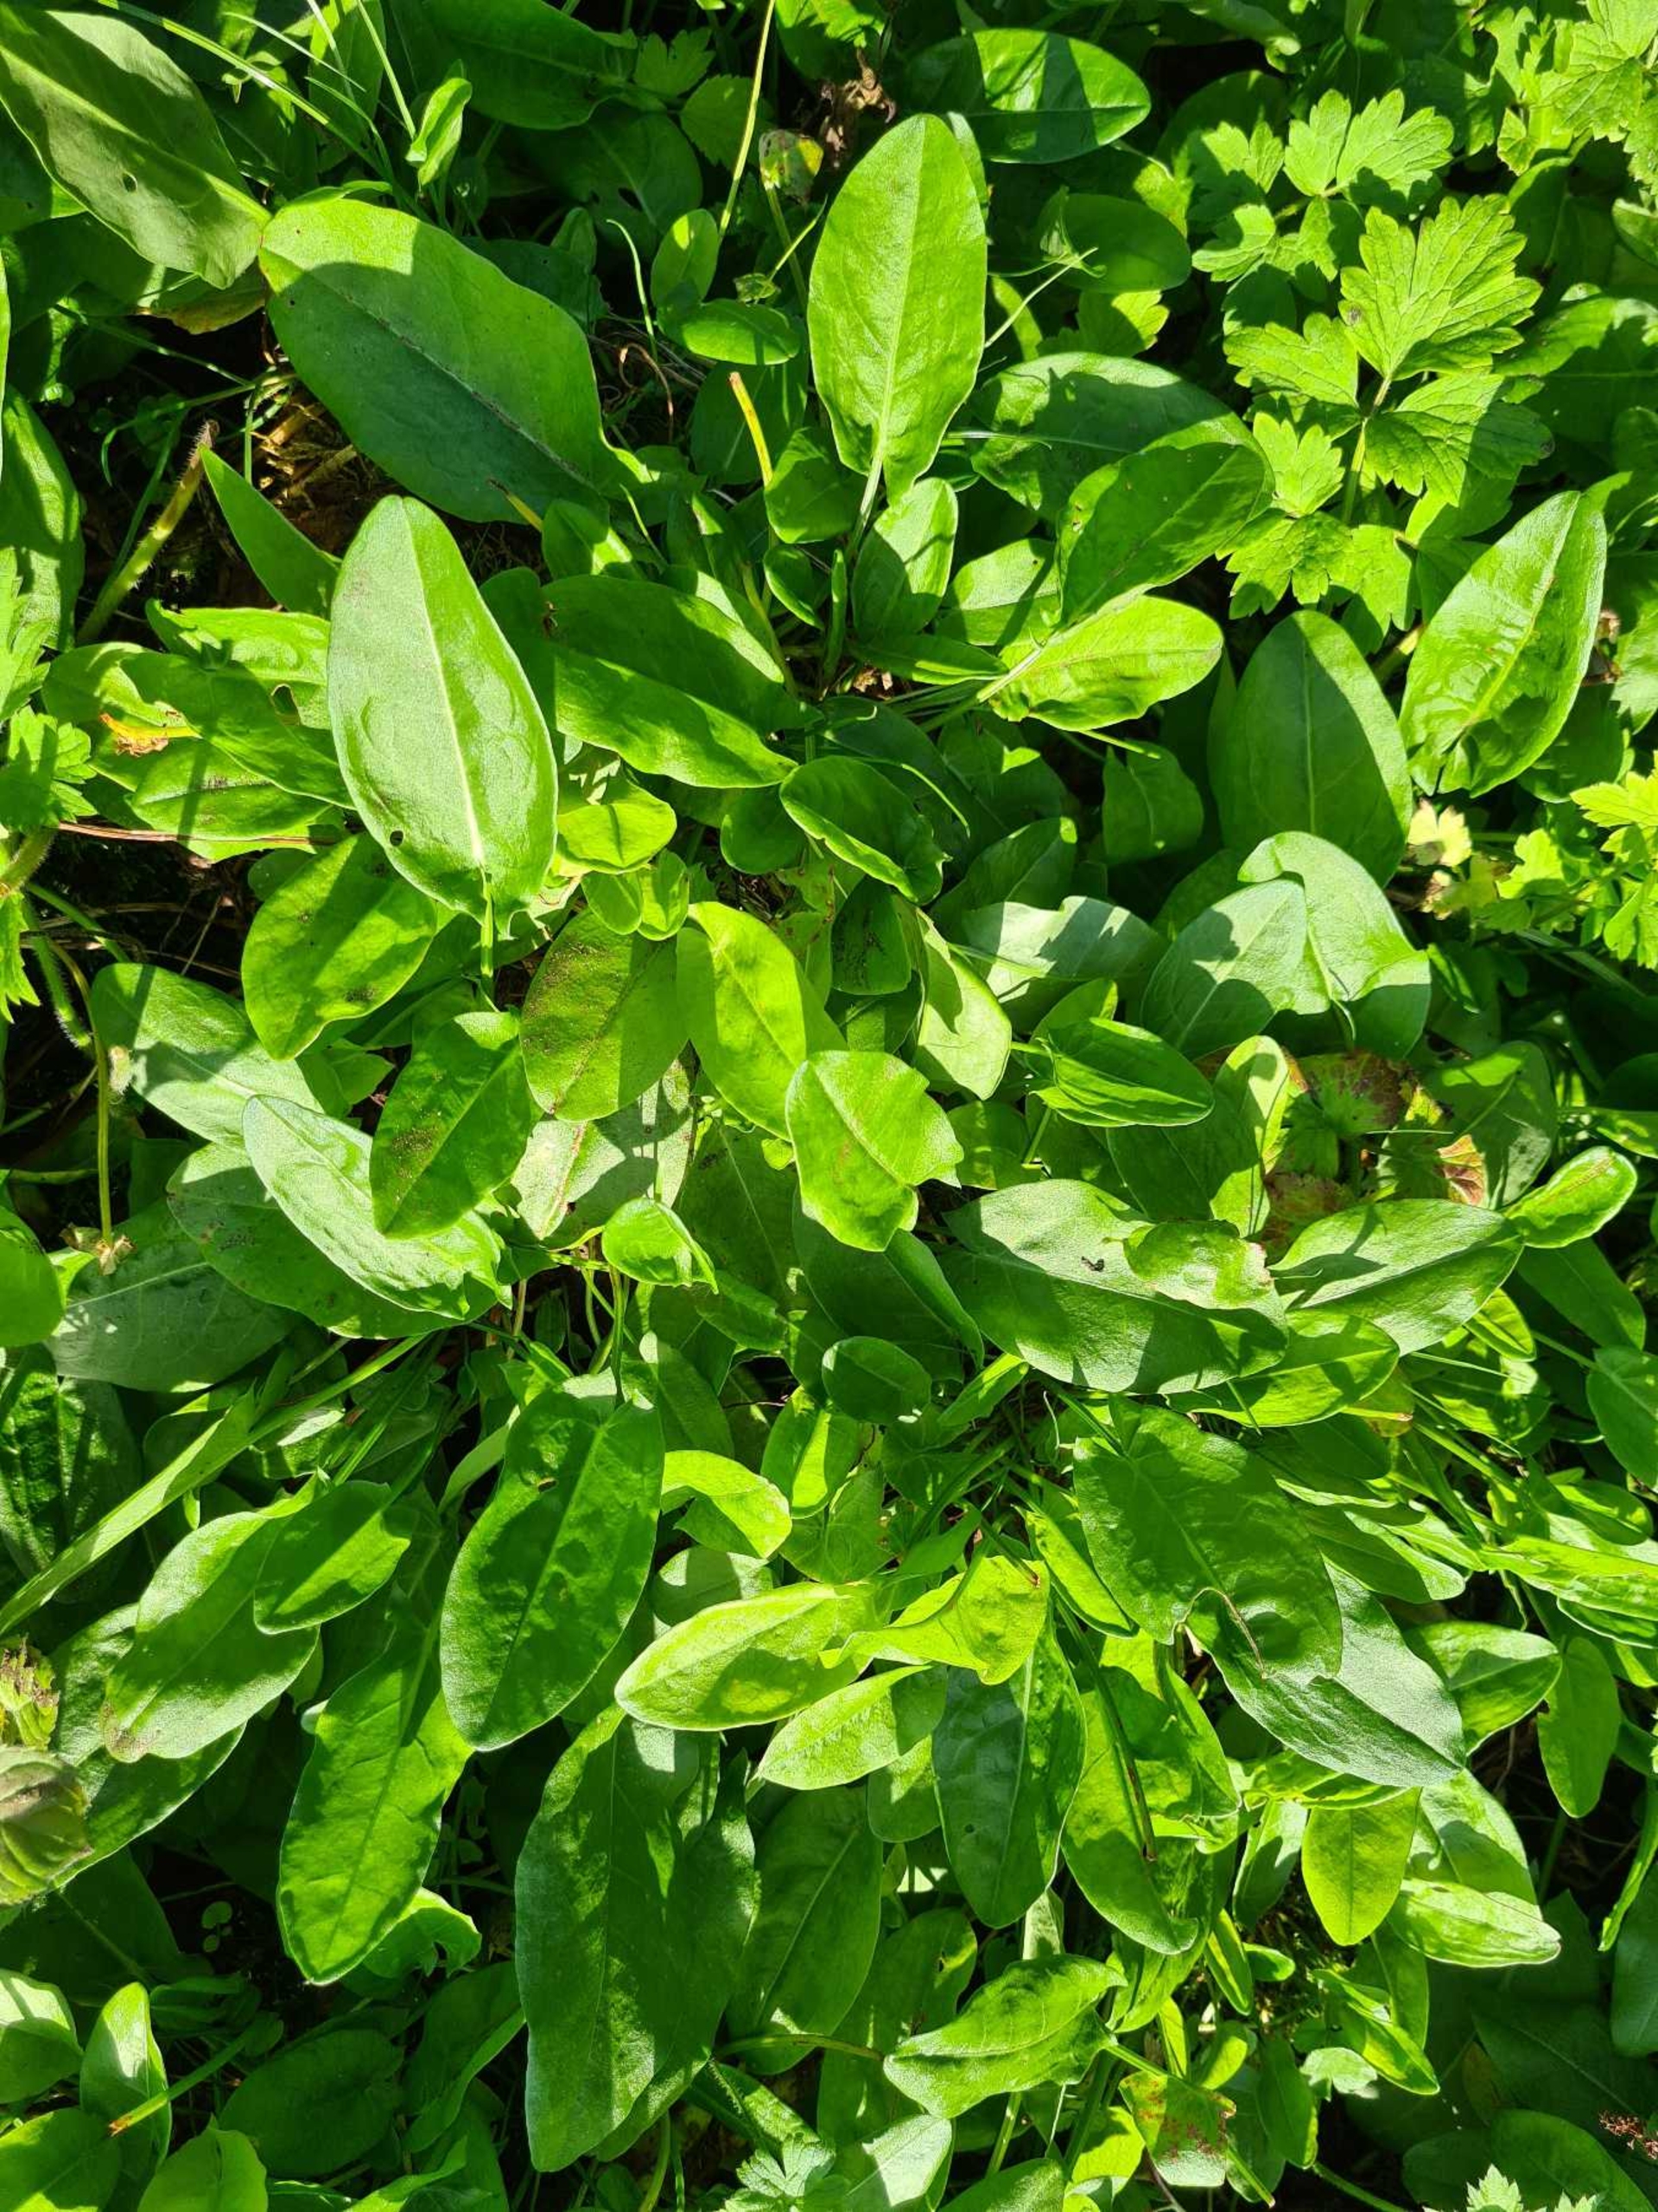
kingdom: Plantae
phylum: Tracheophyta
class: Magnoliopsida
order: Caryophyllales
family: Polygonaceae
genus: Rumex
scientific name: Rumex acetosa
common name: Kilde-syre
